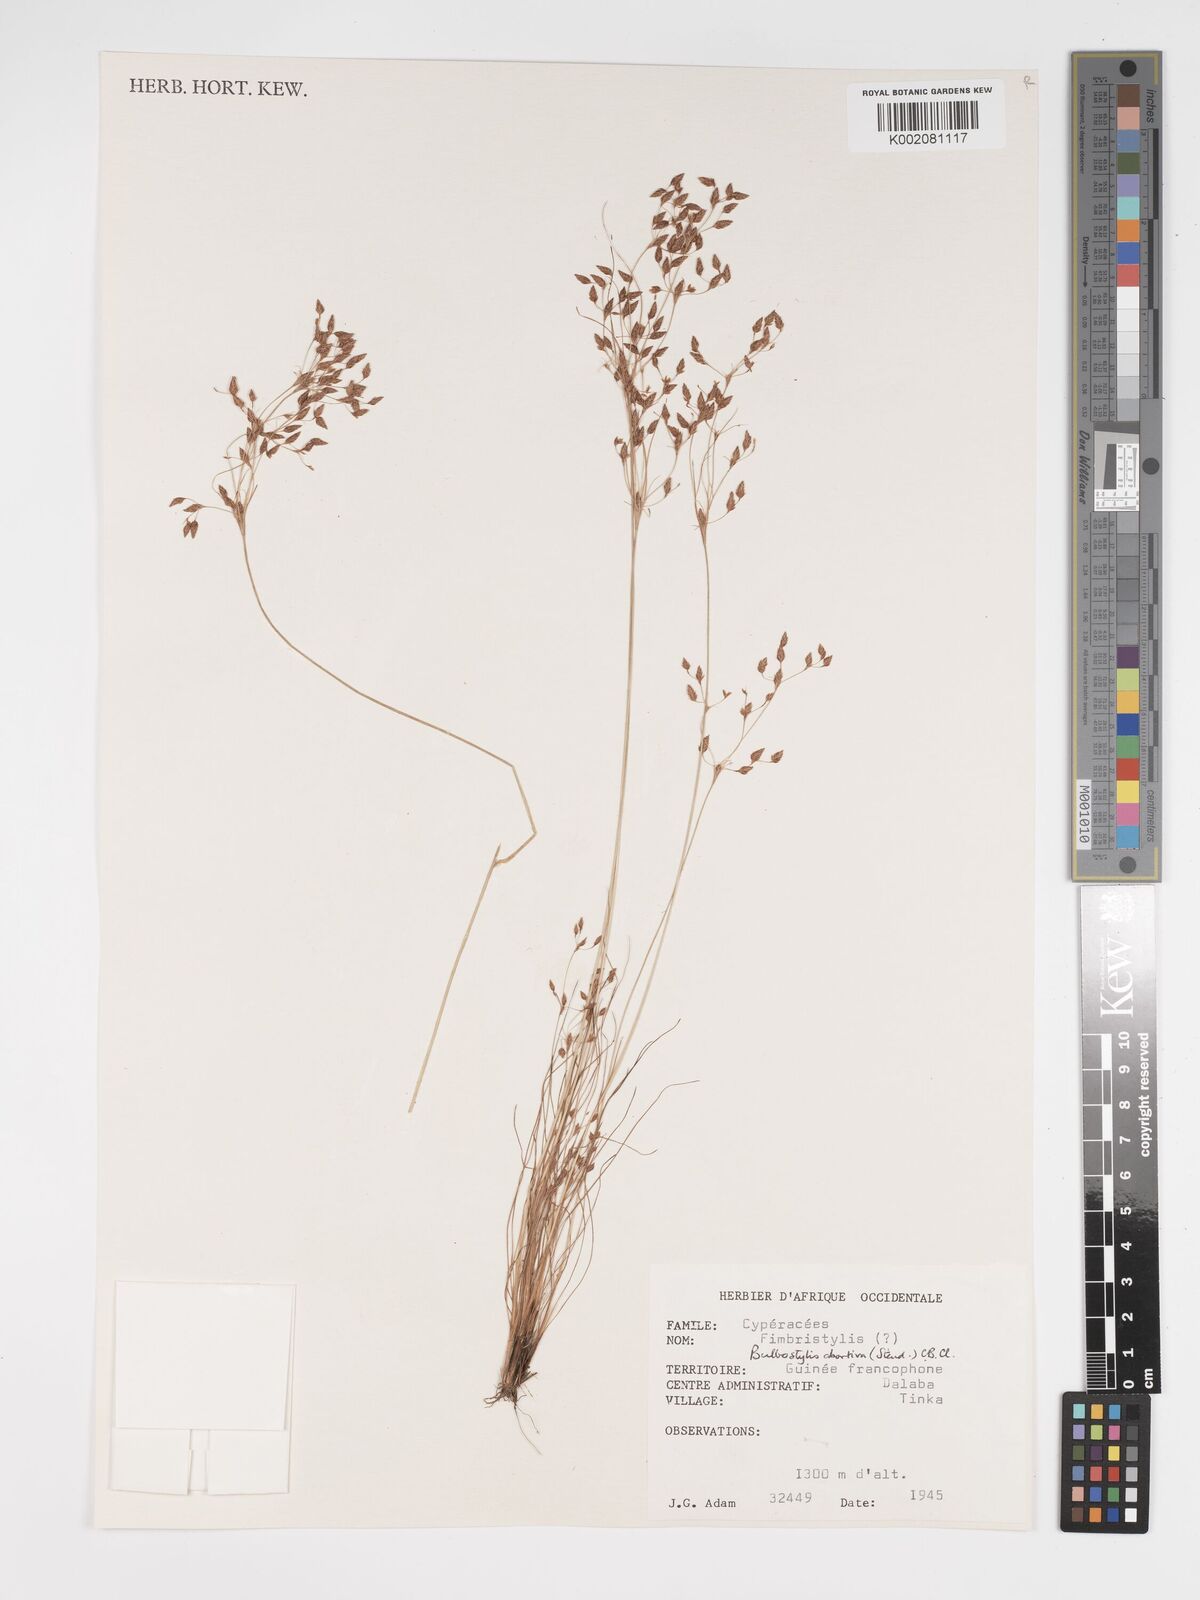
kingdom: Plantae
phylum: Tracheophyta
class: Liliopsida
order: Poales
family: Cyperaceae
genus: Bulbostylis
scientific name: Bulbostylis abortiva
